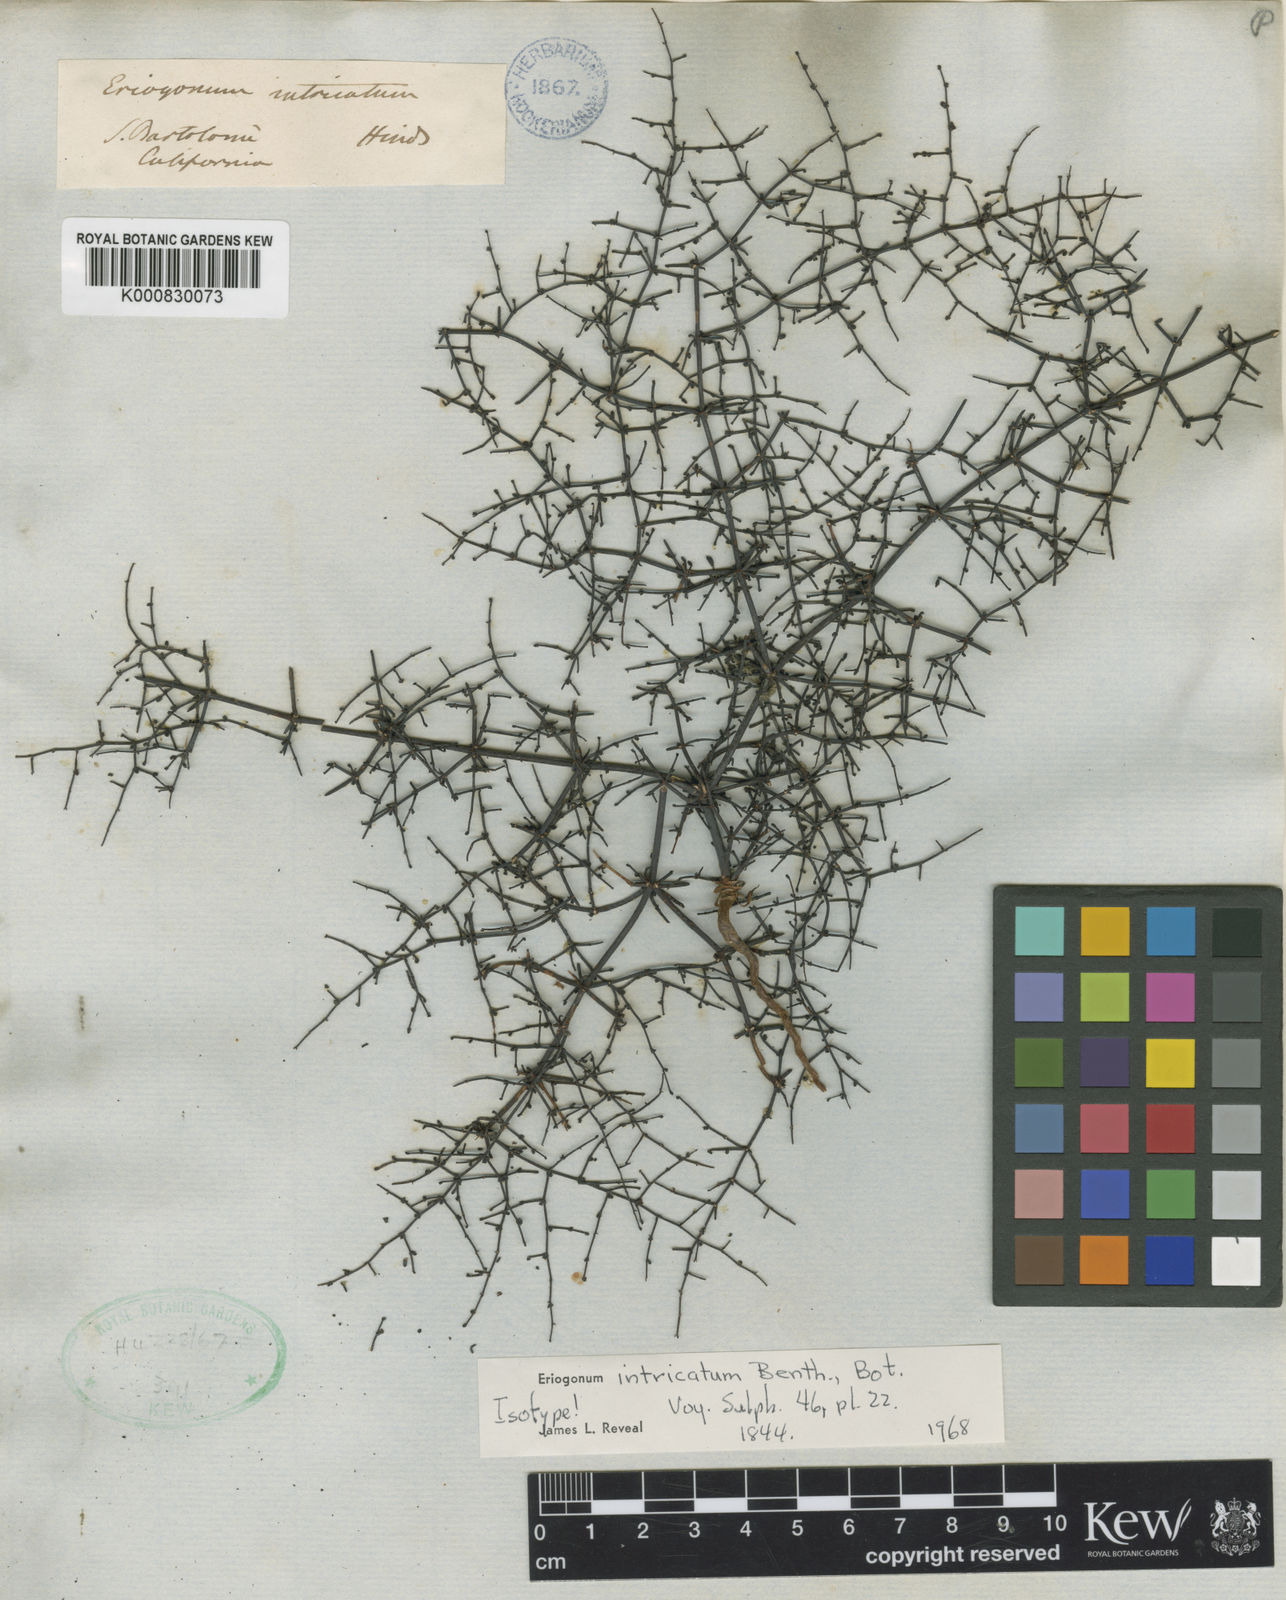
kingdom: Plantae
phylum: Tracheophyta
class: Magnoliopsida
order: Caryophyllales
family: Polygonaceae
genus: Eriogonum
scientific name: Eriogonum intricatum
